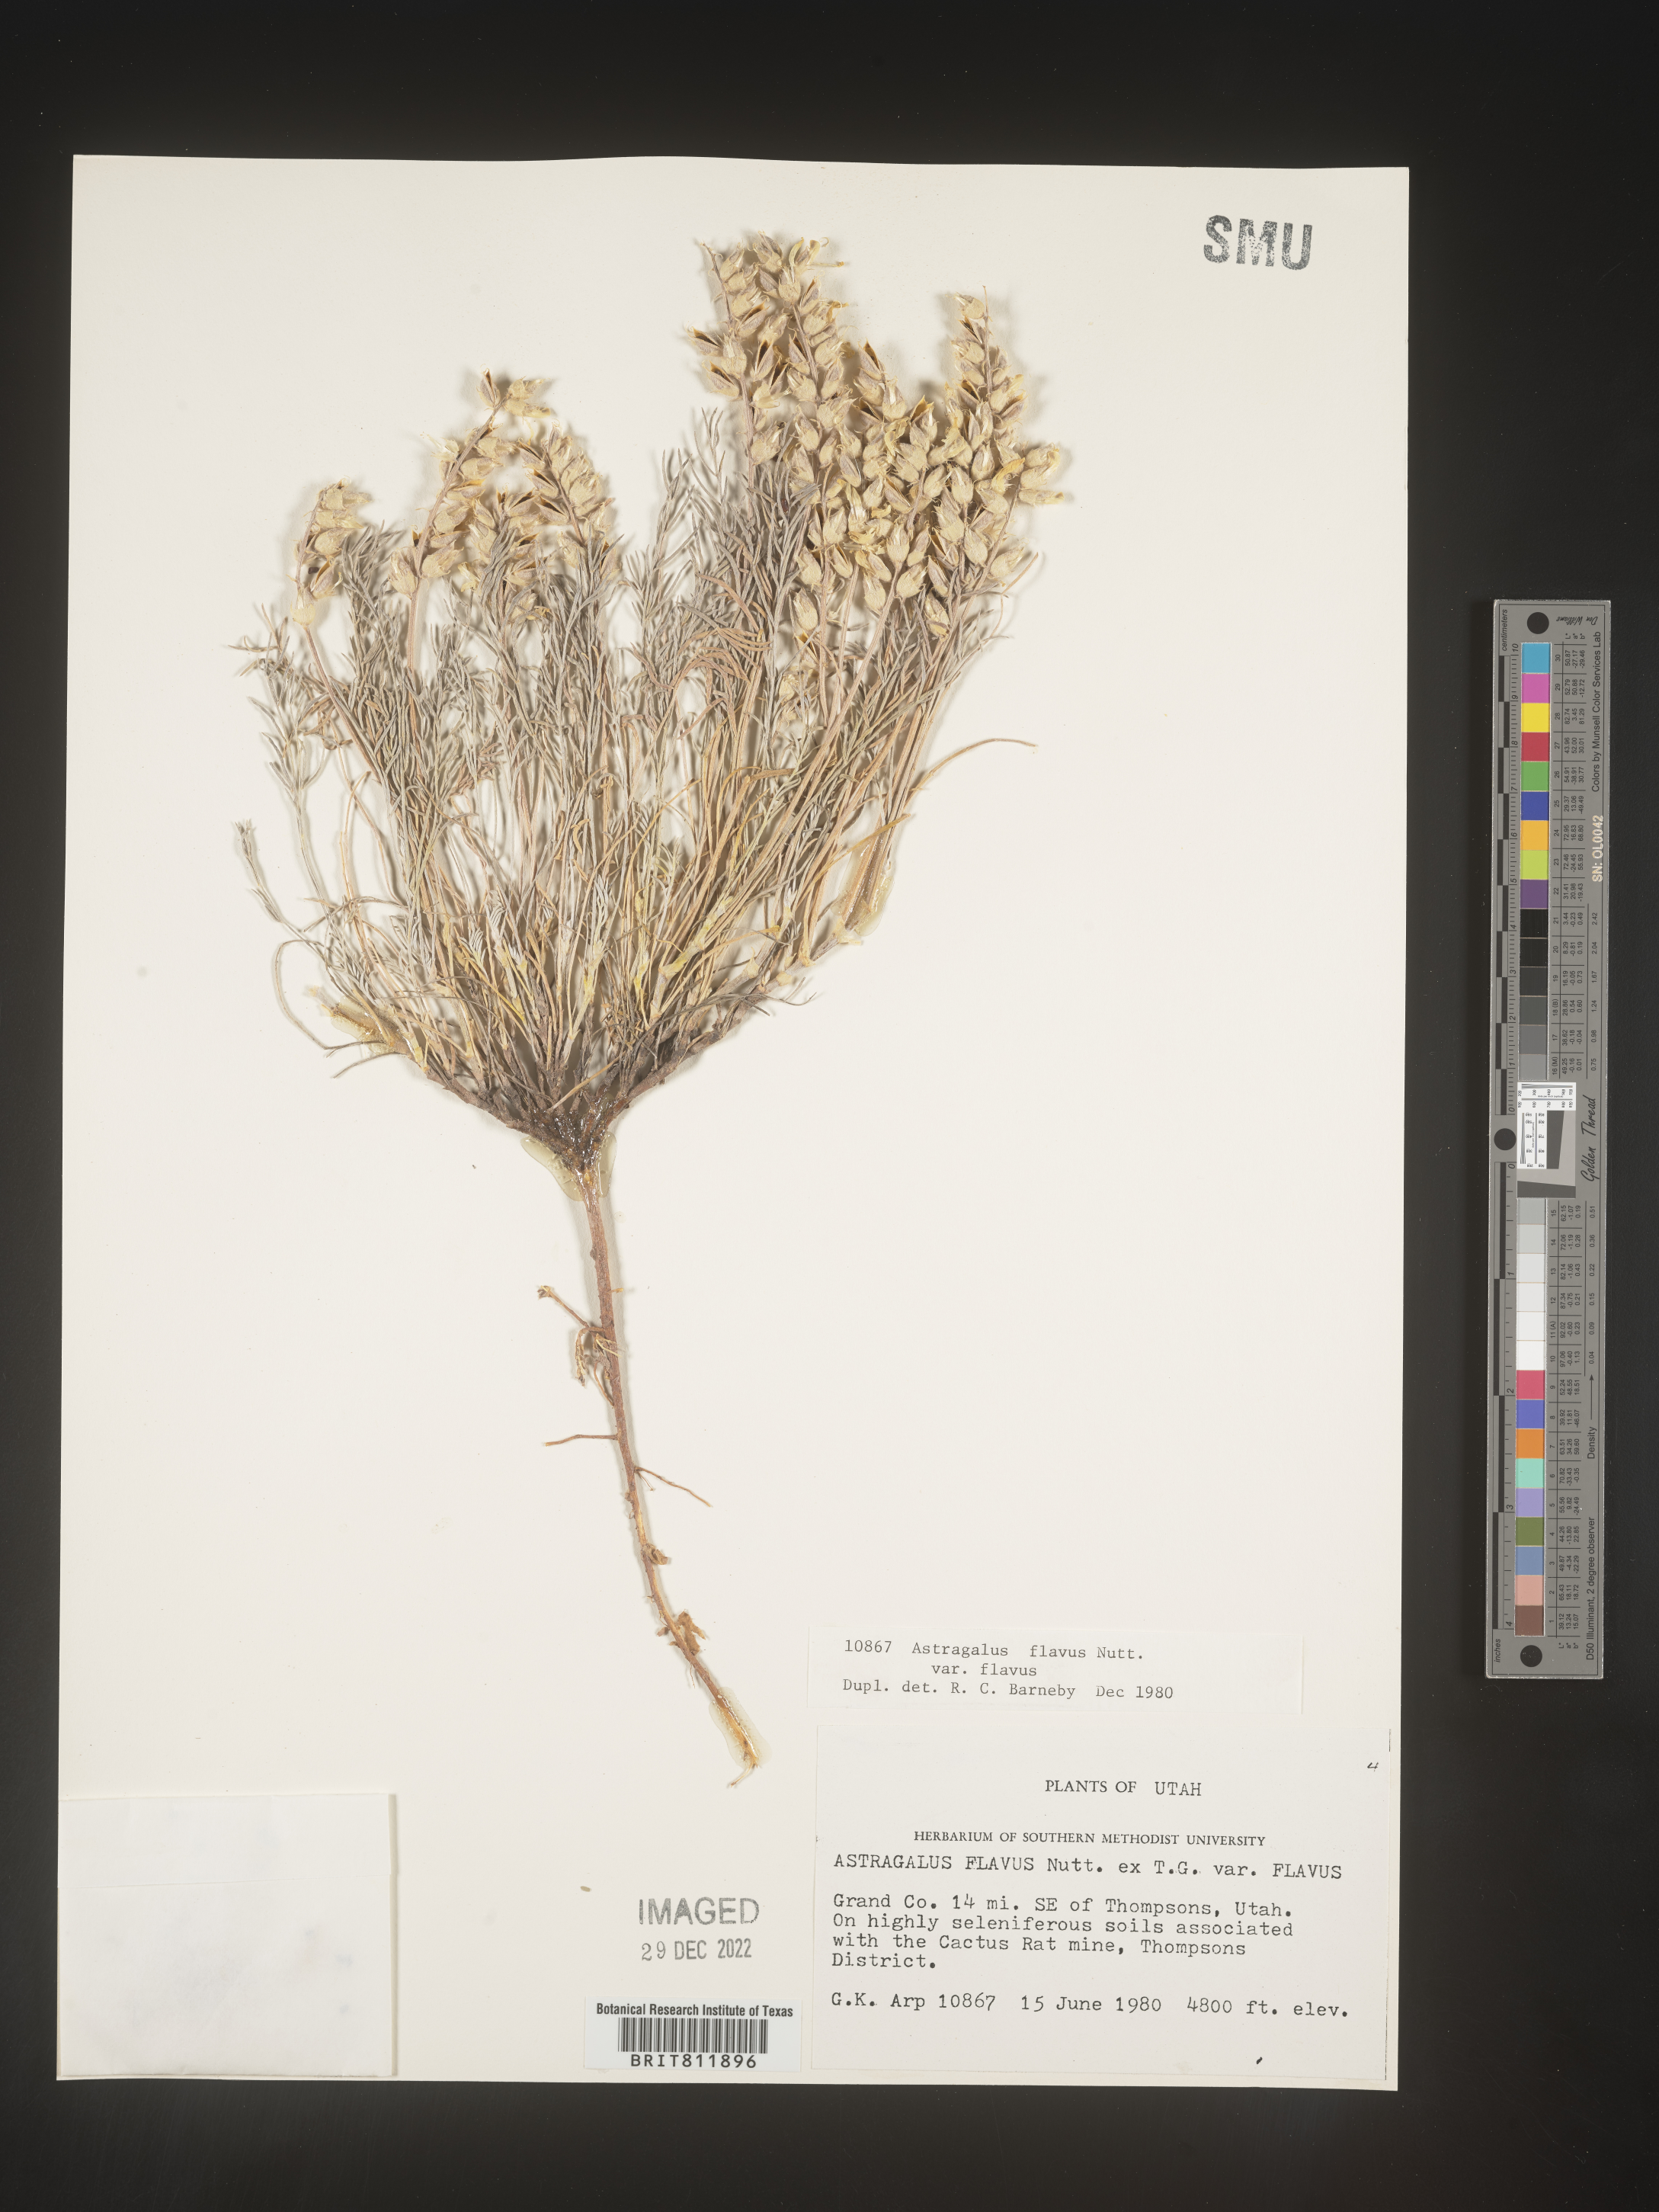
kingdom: Plantae
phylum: Tracheophyta
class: Magnoliopsida
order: Fabales
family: Fabaceae
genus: Astragalus
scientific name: Astragalus
